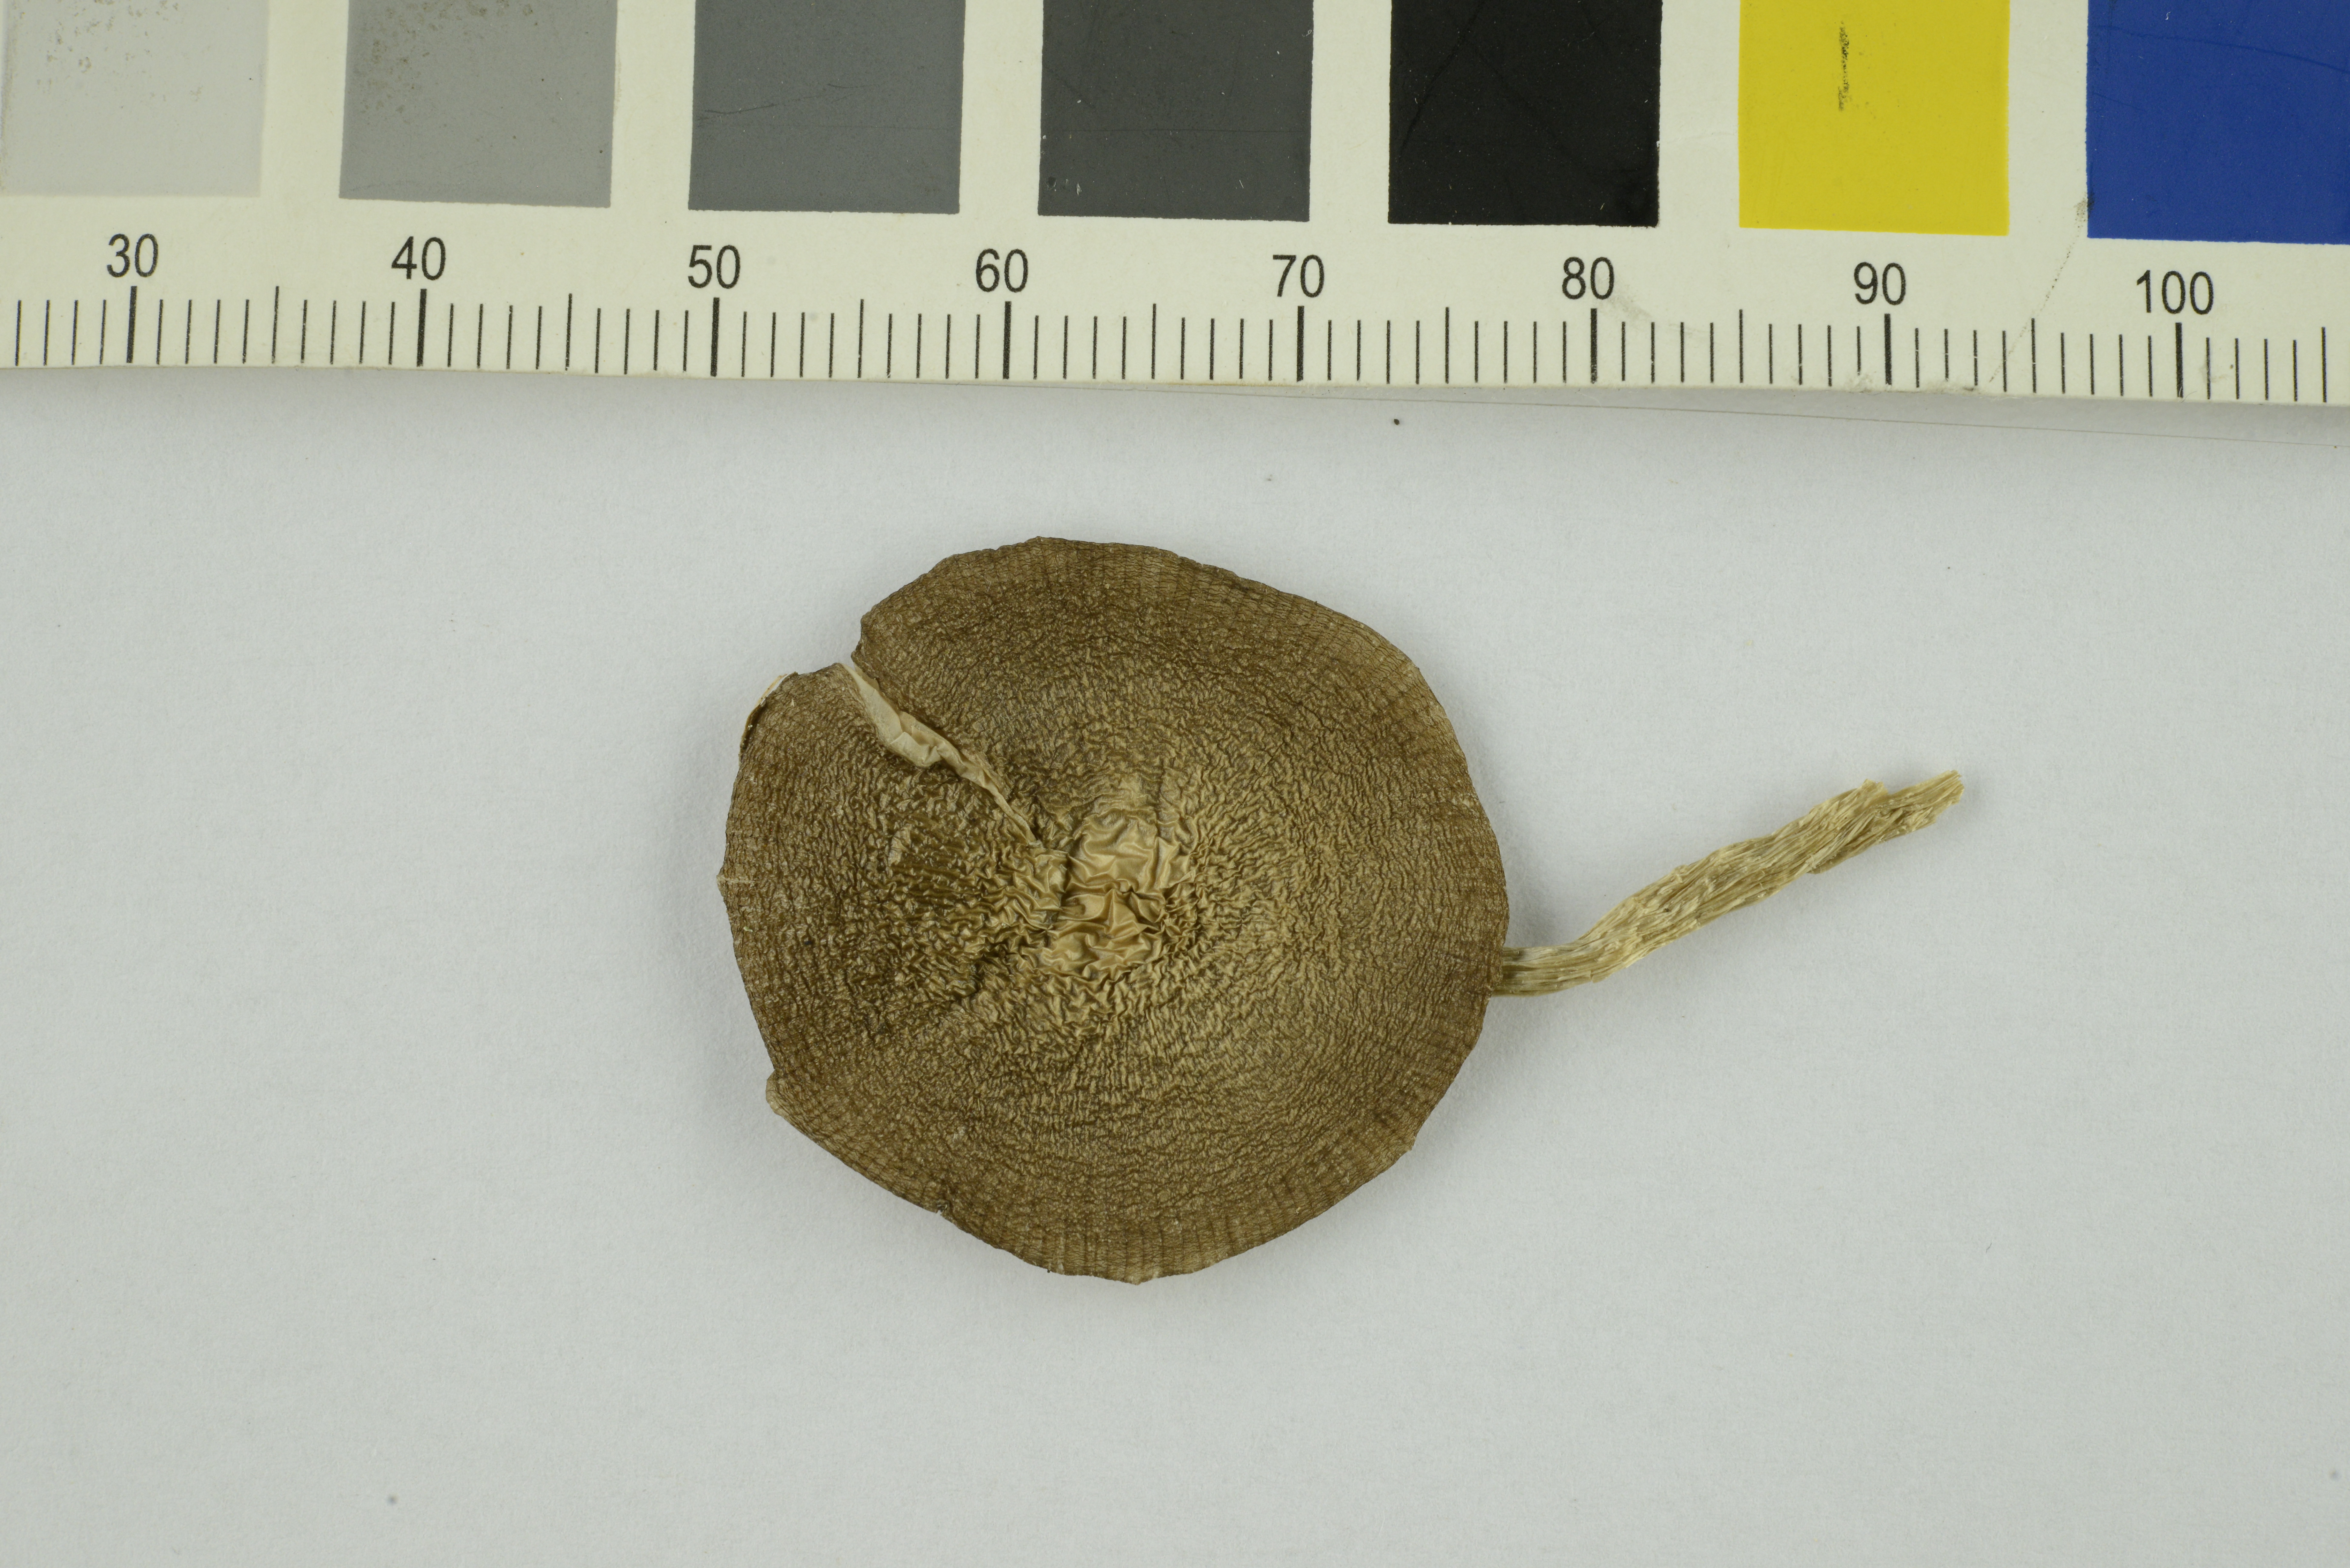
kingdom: Fungi
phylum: Basidiomycota
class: Agaricomycetes
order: Agaricales
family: Entolomataceae
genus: Entoloma
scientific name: Entoloma sericatum
